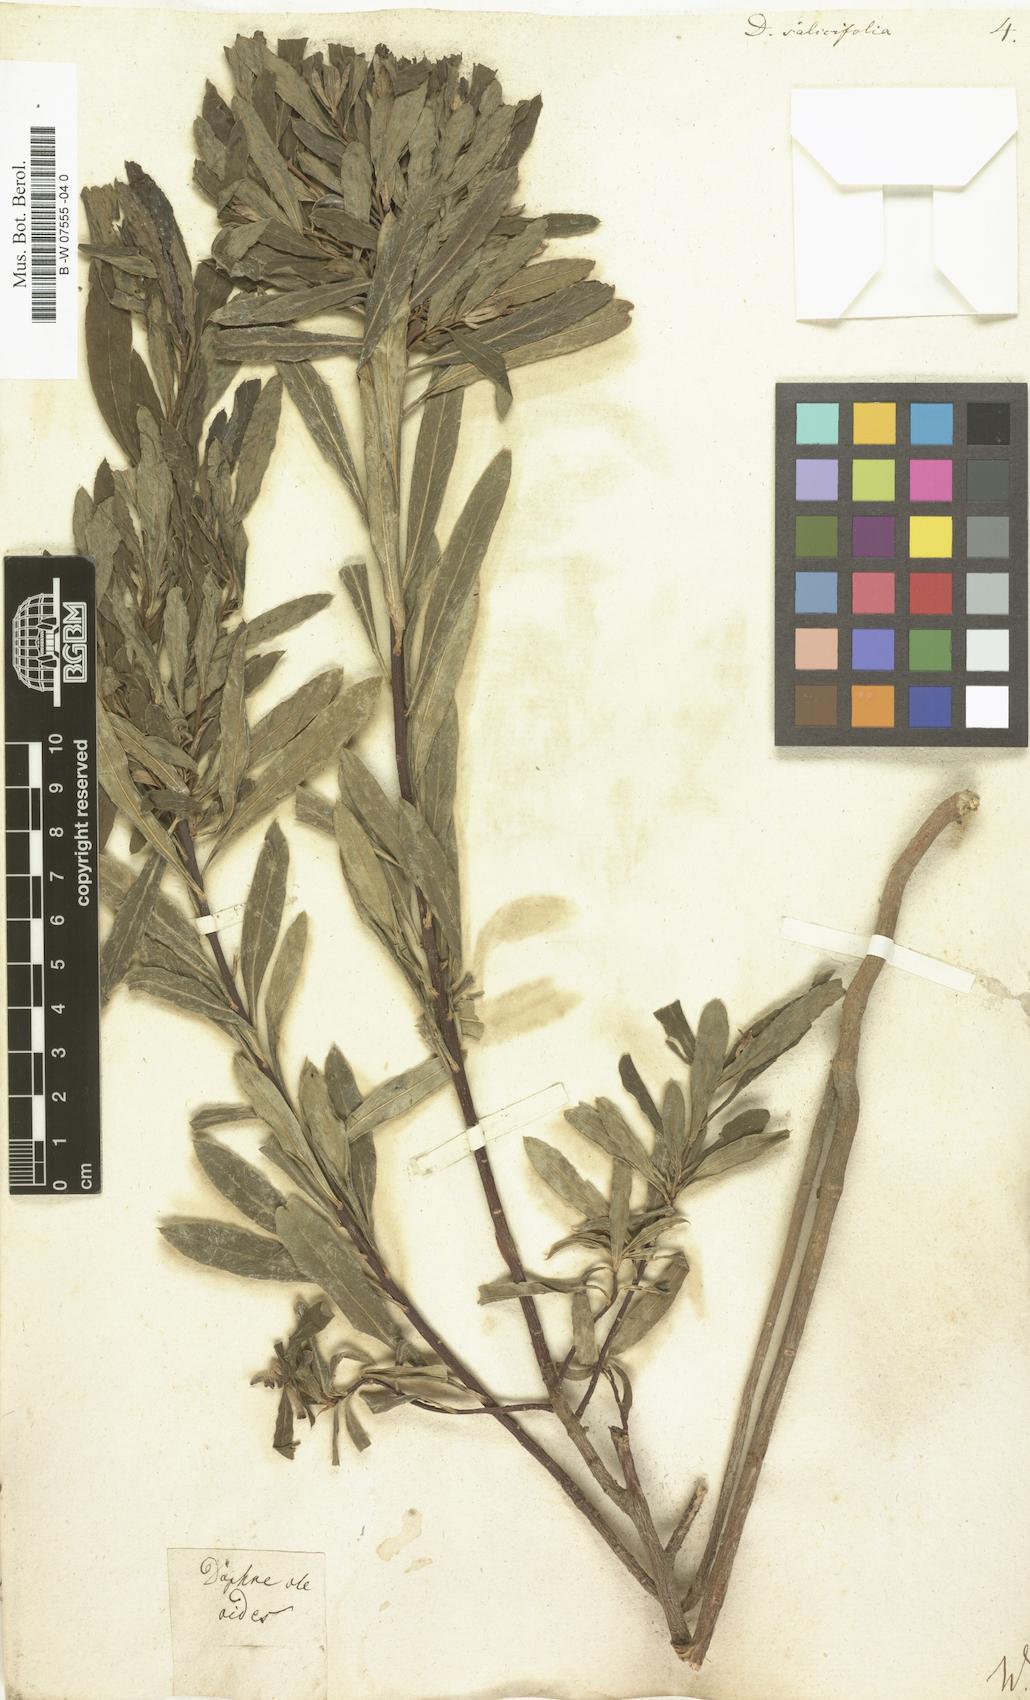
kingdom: Plantae
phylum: Tracheophyta
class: Magnoliopsida
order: Malvales
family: Thymelaeaceae
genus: Daphne
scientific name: Daphne caucasica
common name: Caucasian daphne
